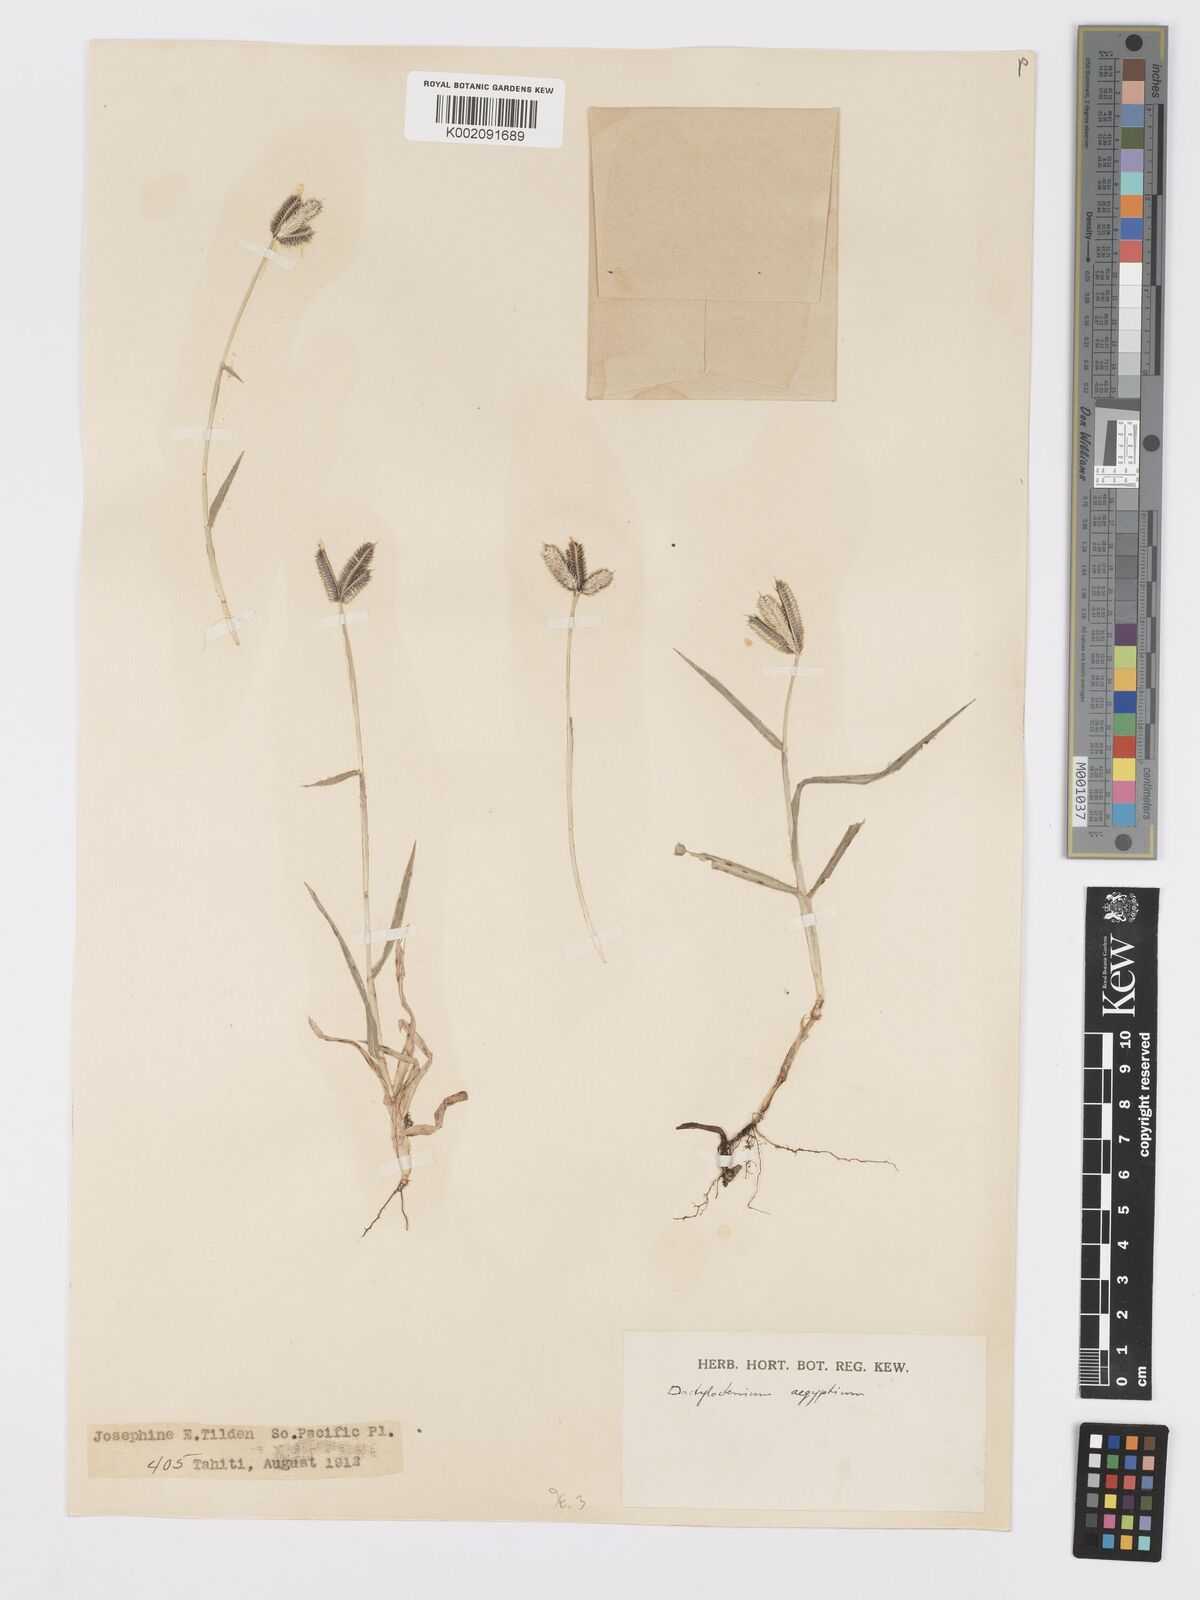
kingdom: Plantae
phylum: Tracheophyta
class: Liliopsida
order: Poales
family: Poaceae
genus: Dactyloctenium
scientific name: Dactyloctenium aegyptium
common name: Egyptian grass
